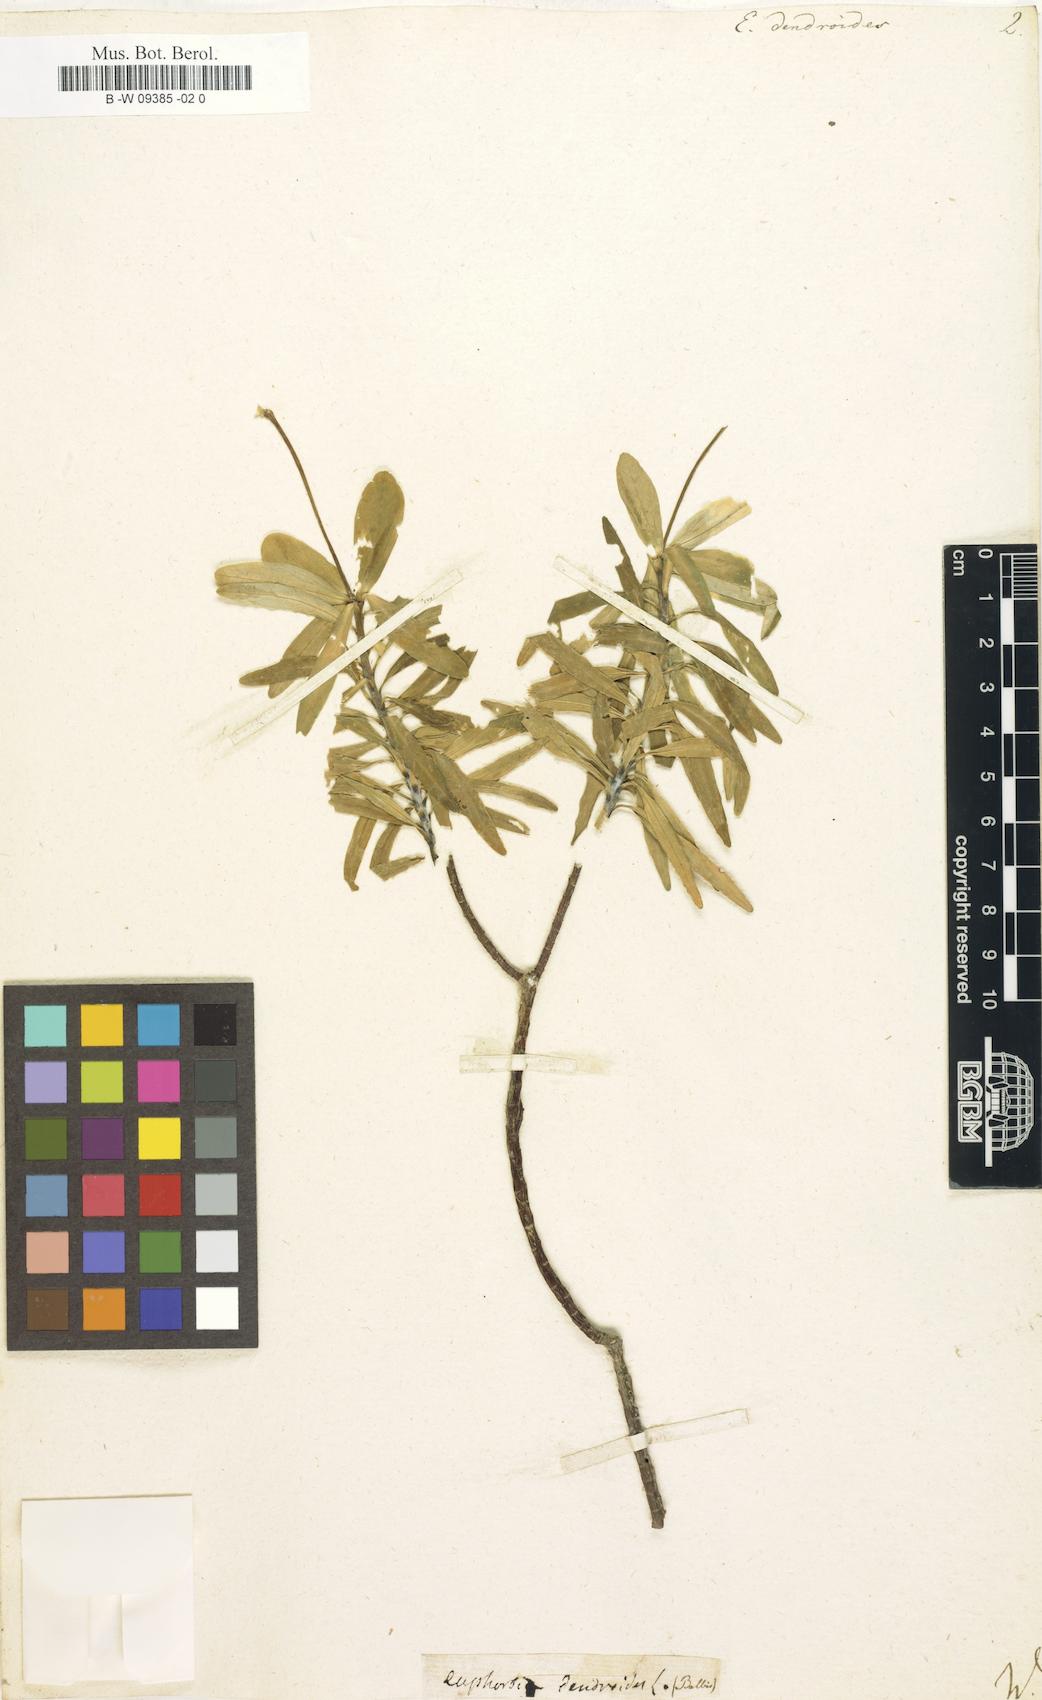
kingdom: Plantae
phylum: Tracheophyta
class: Magnoliopsida
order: Malpighiales
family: Euphorbiaceae
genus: Euphorbia
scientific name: Euphorbia dendroides
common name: Tree spurge
